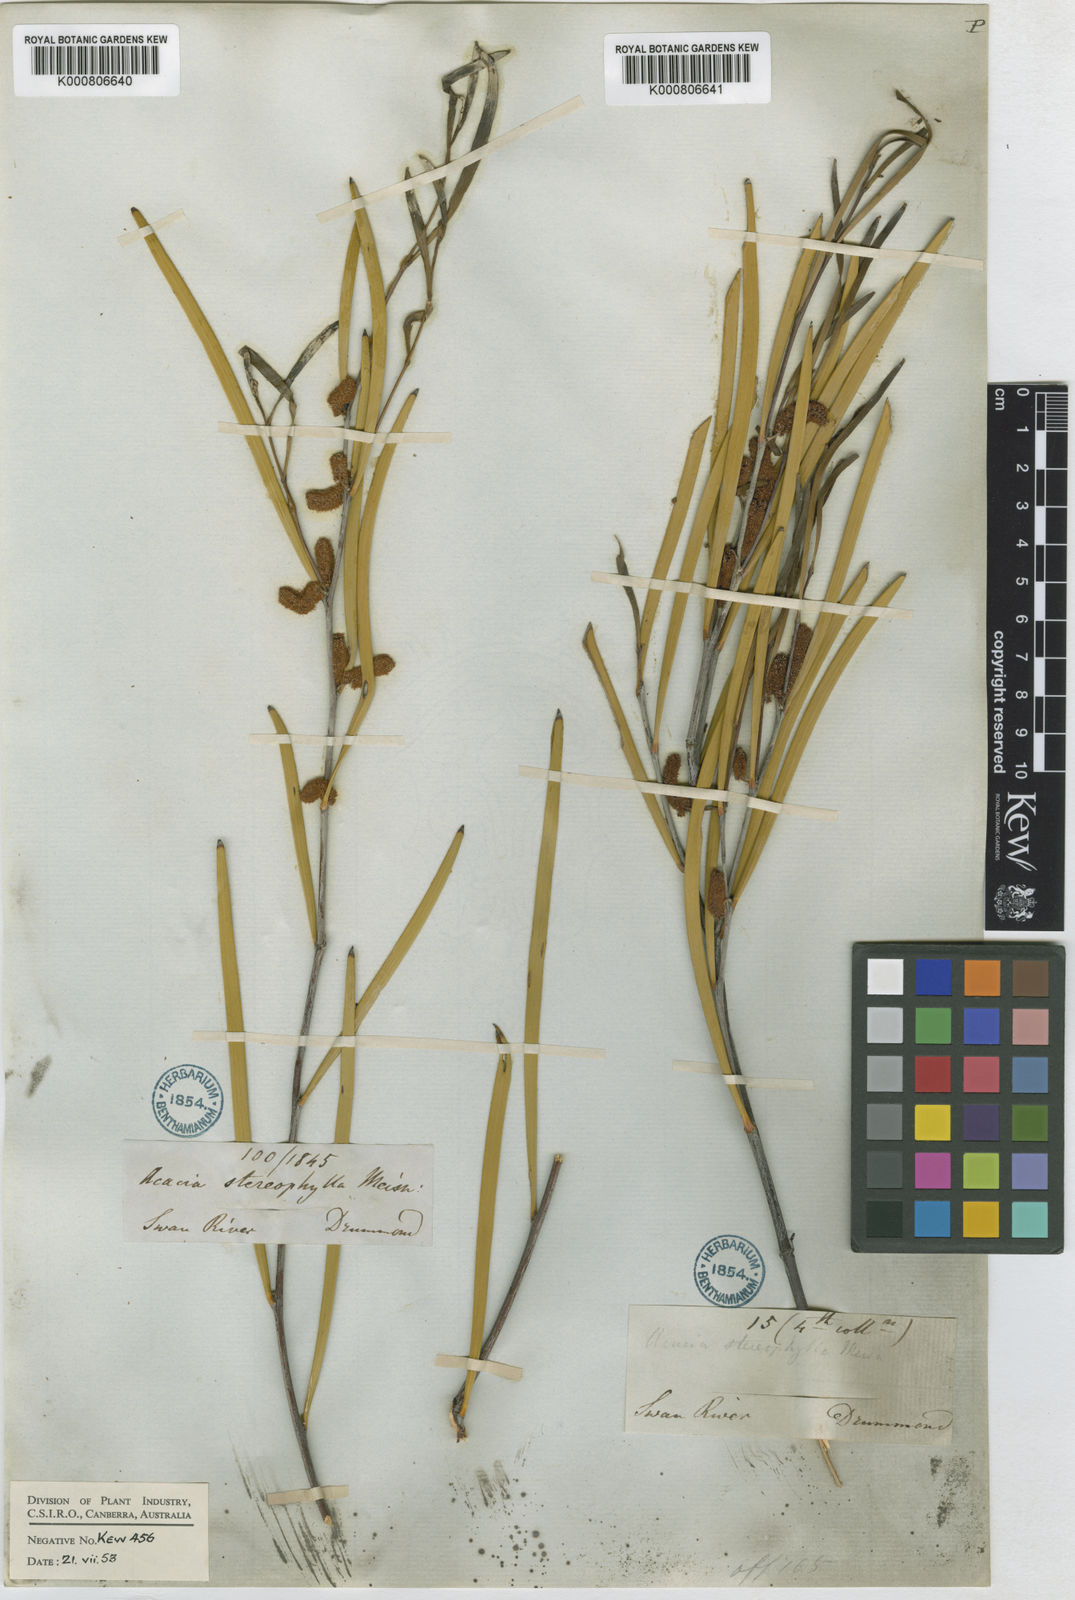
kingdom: Plantae
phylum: Tracheophyta
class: Magnoliopsida
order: Fabales
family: Fabaceae
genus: Acacia
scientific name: Acacia stereophylla
